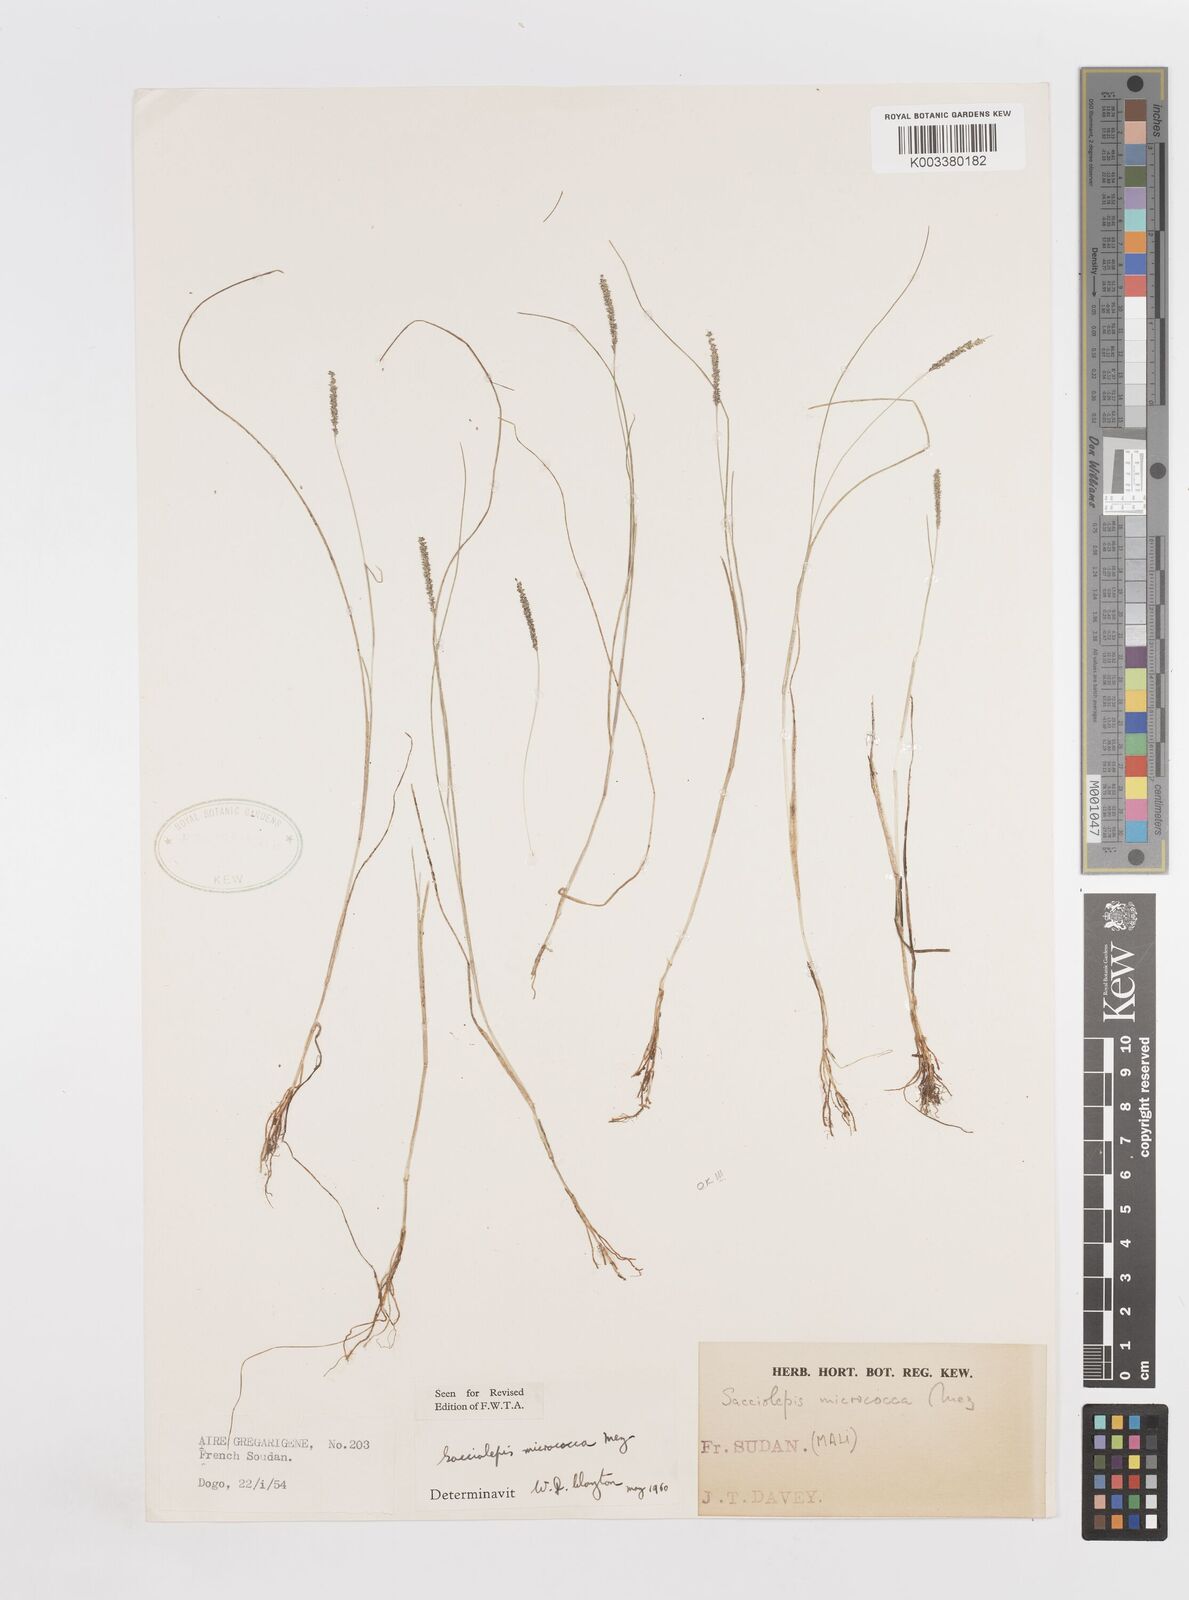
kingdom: Plantae
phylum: Tracheophyta
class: Liliopsida
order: Poales
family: Poaceae
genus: Sacciolepis
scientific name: Sacciolepis micrococca
